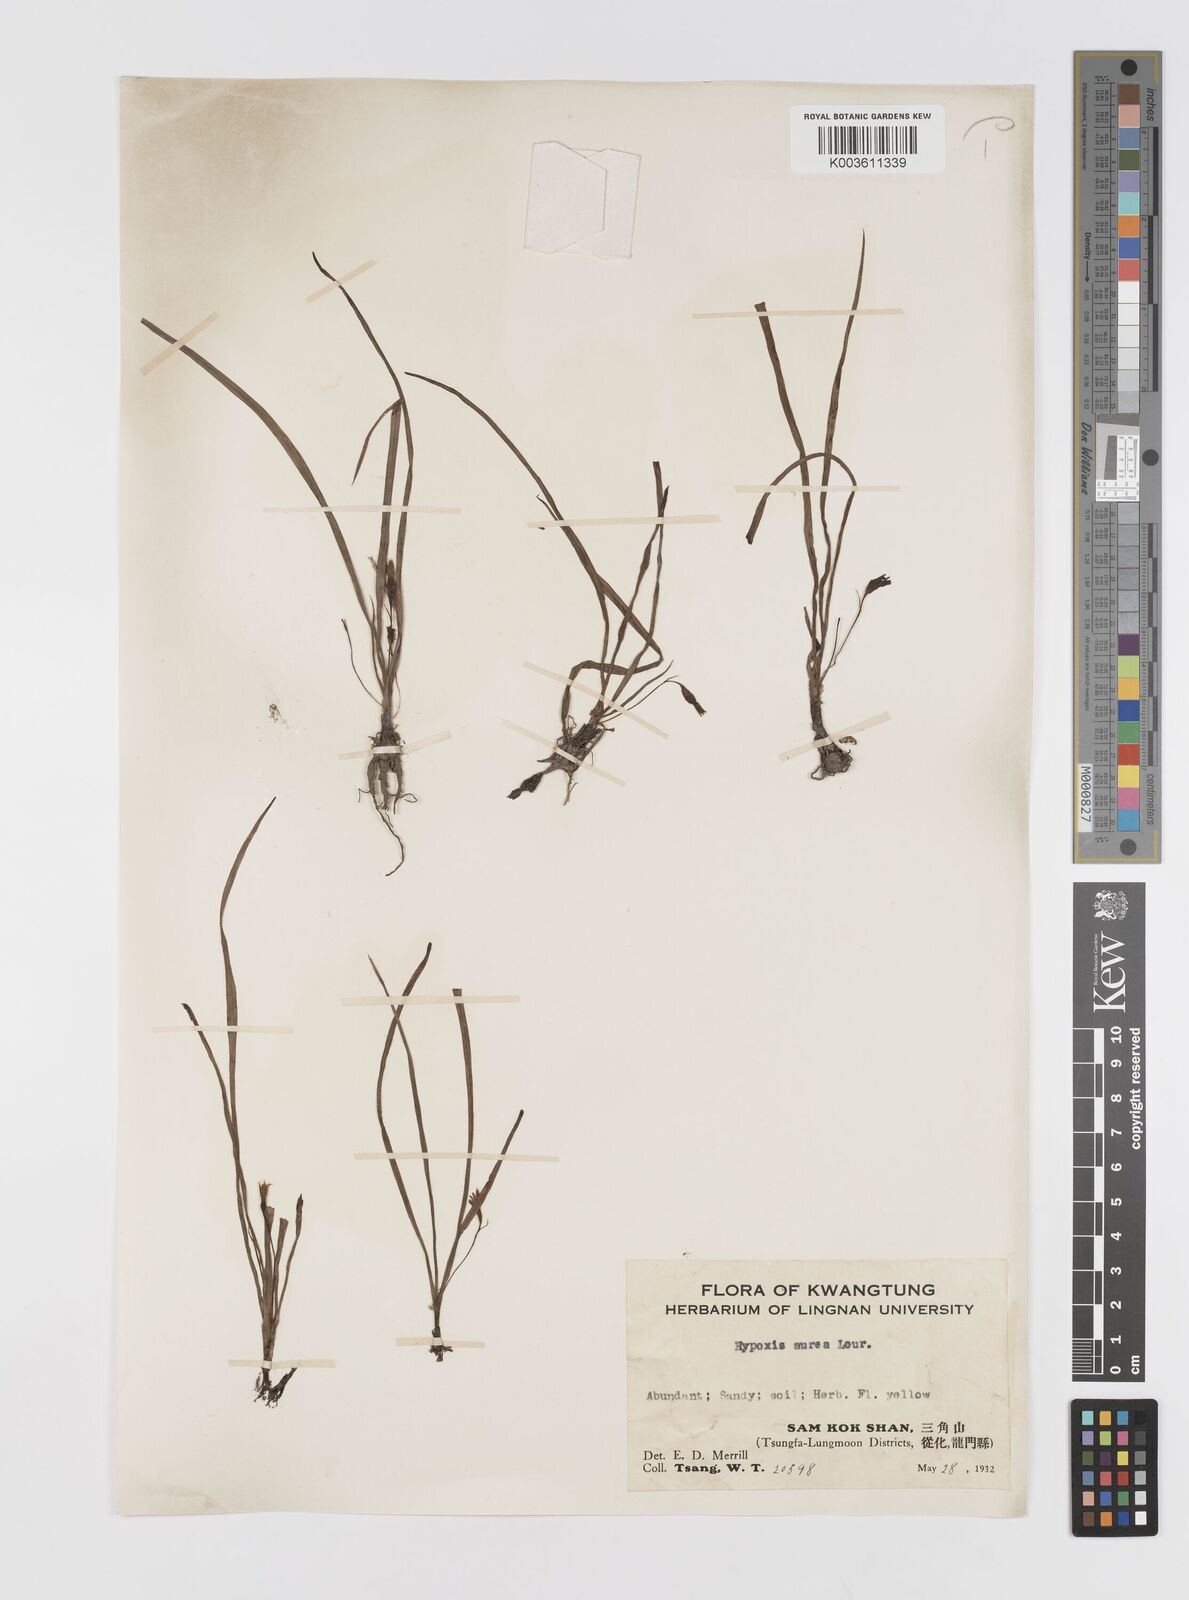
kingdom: Plantae
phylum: Tracheophyta
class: Liliopsida
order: Asparagales
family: Hypoxidaceae
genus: Hypoxis
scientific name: Hypoxis aurea
